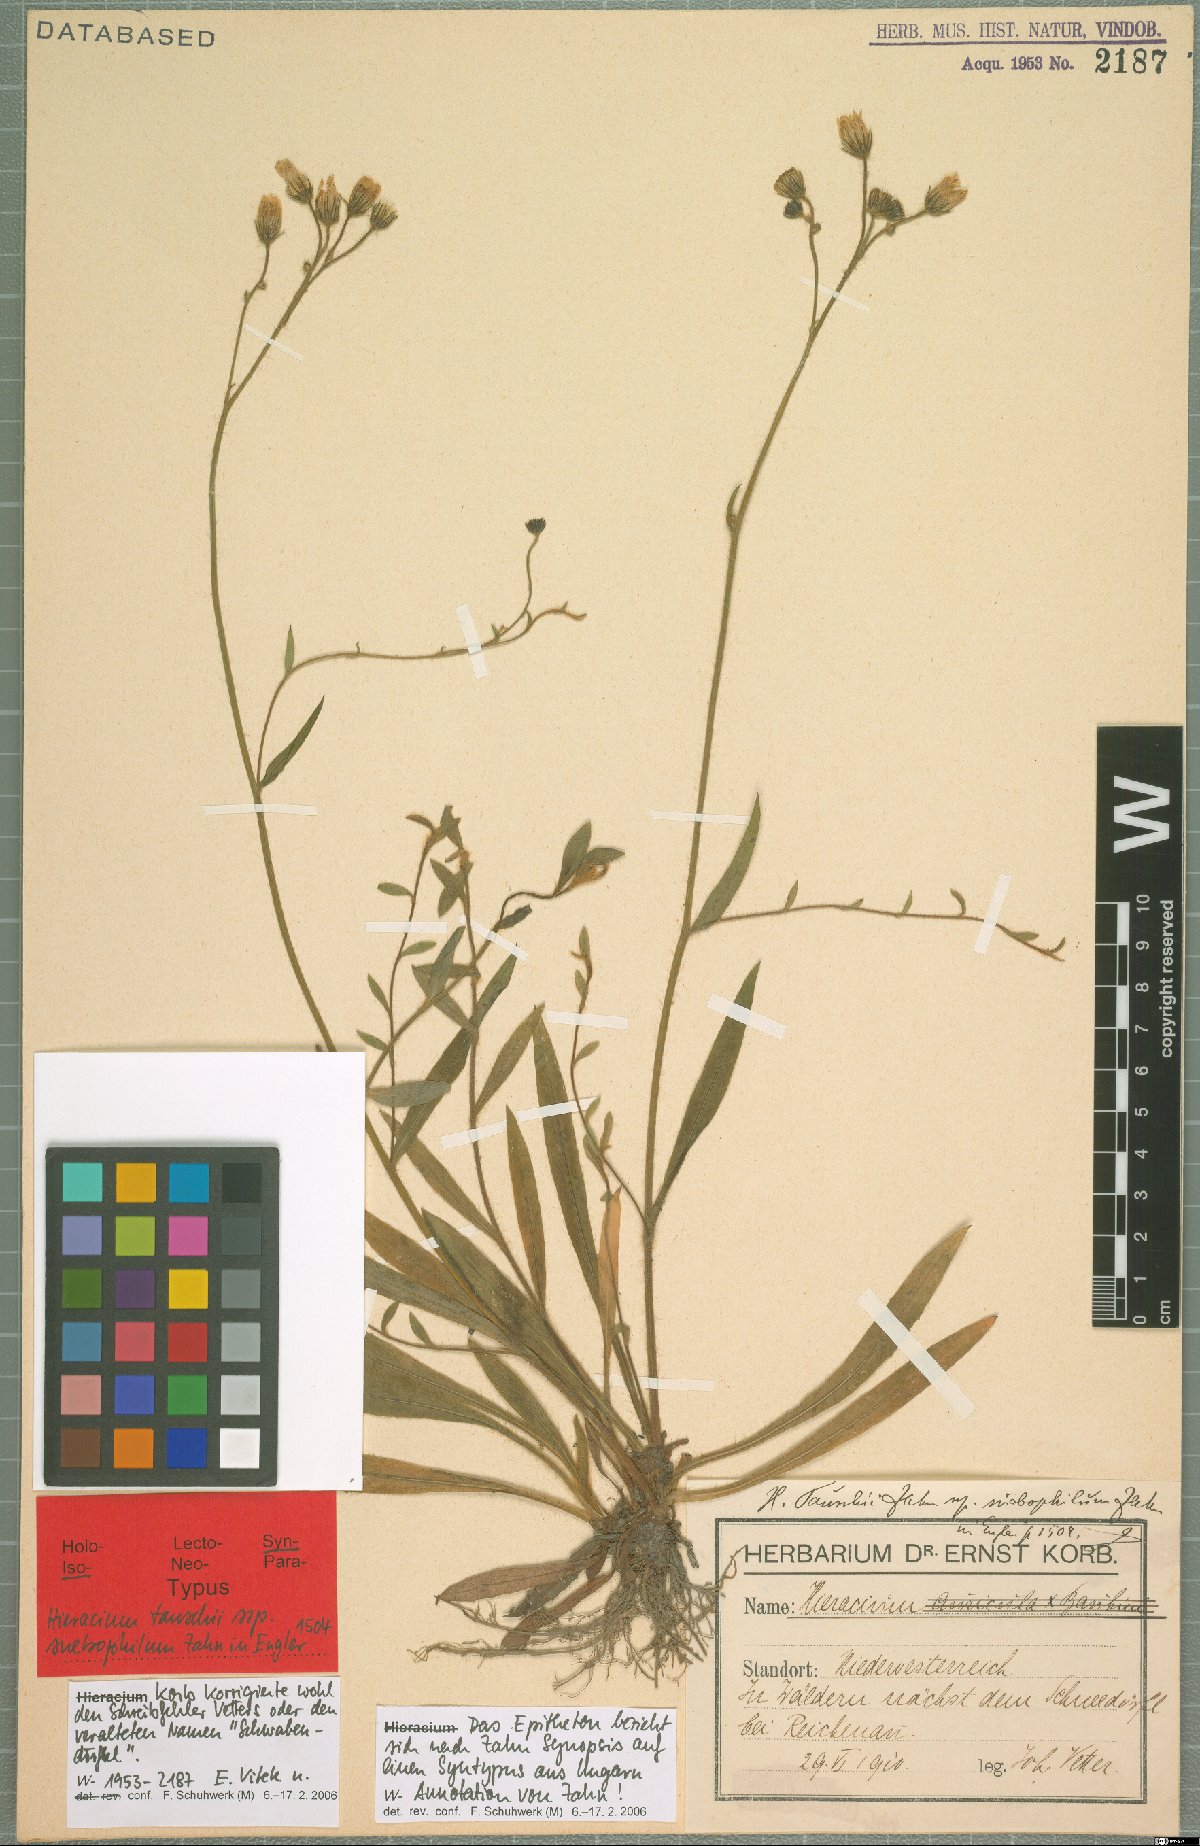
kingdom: Plantae
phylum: Tracheophyta
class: Magnoliopsida
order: Asterales
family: Asteraceae
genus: Pilosella
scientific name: Pilosella densiflora
